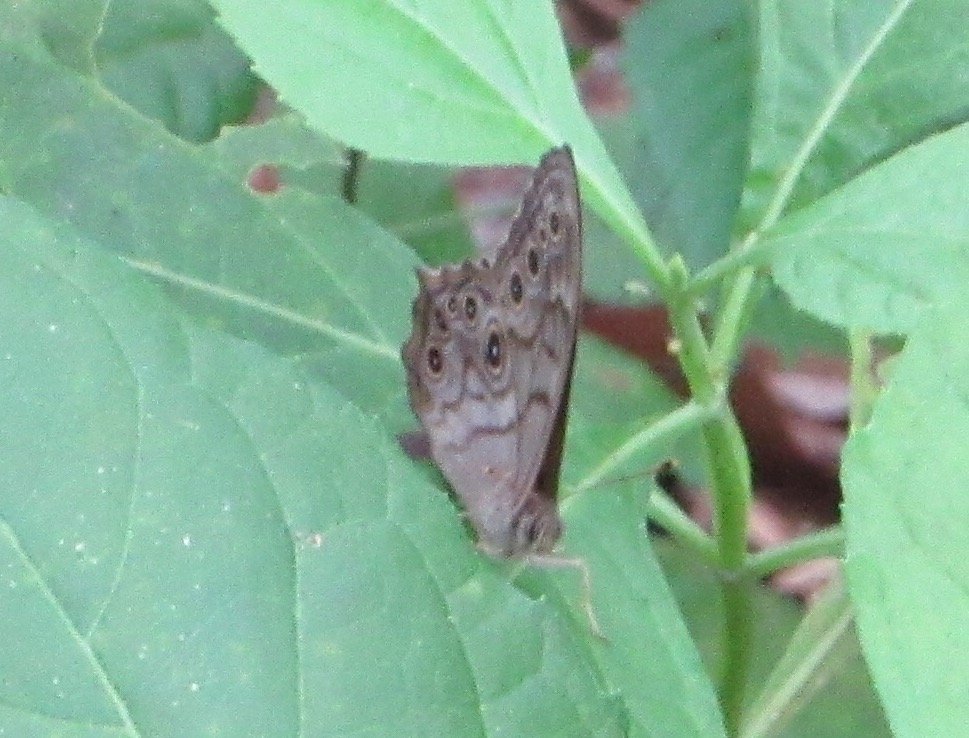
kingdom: Animalia
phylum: Arthropoda
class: Insecta
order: Lepidoptera
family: Nymphalidae
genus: Lethe
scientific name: Lethe creola
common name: Creole Pearly-Eye
